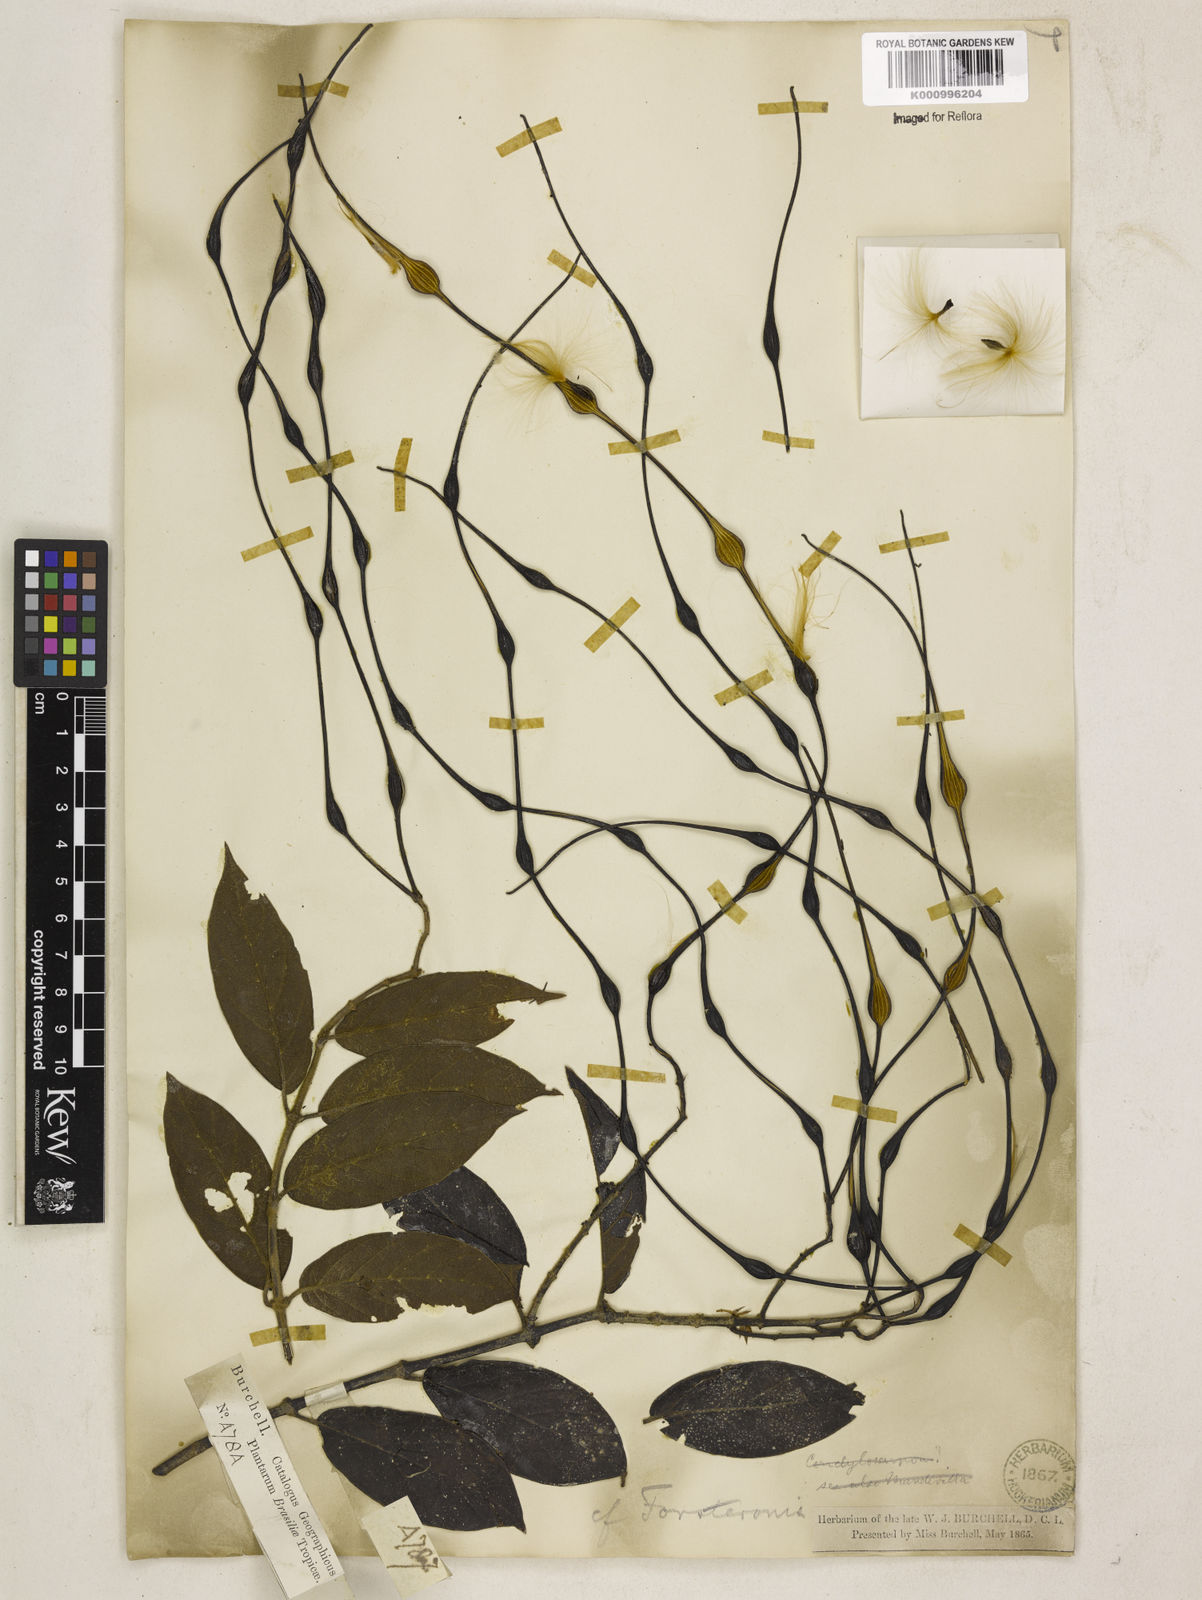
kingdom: Plantae
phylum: Tracheophyta
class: Magnoliopsida
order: Gentianales
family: Apocynaceae
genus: Forsteronia
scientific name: Forsteronia
